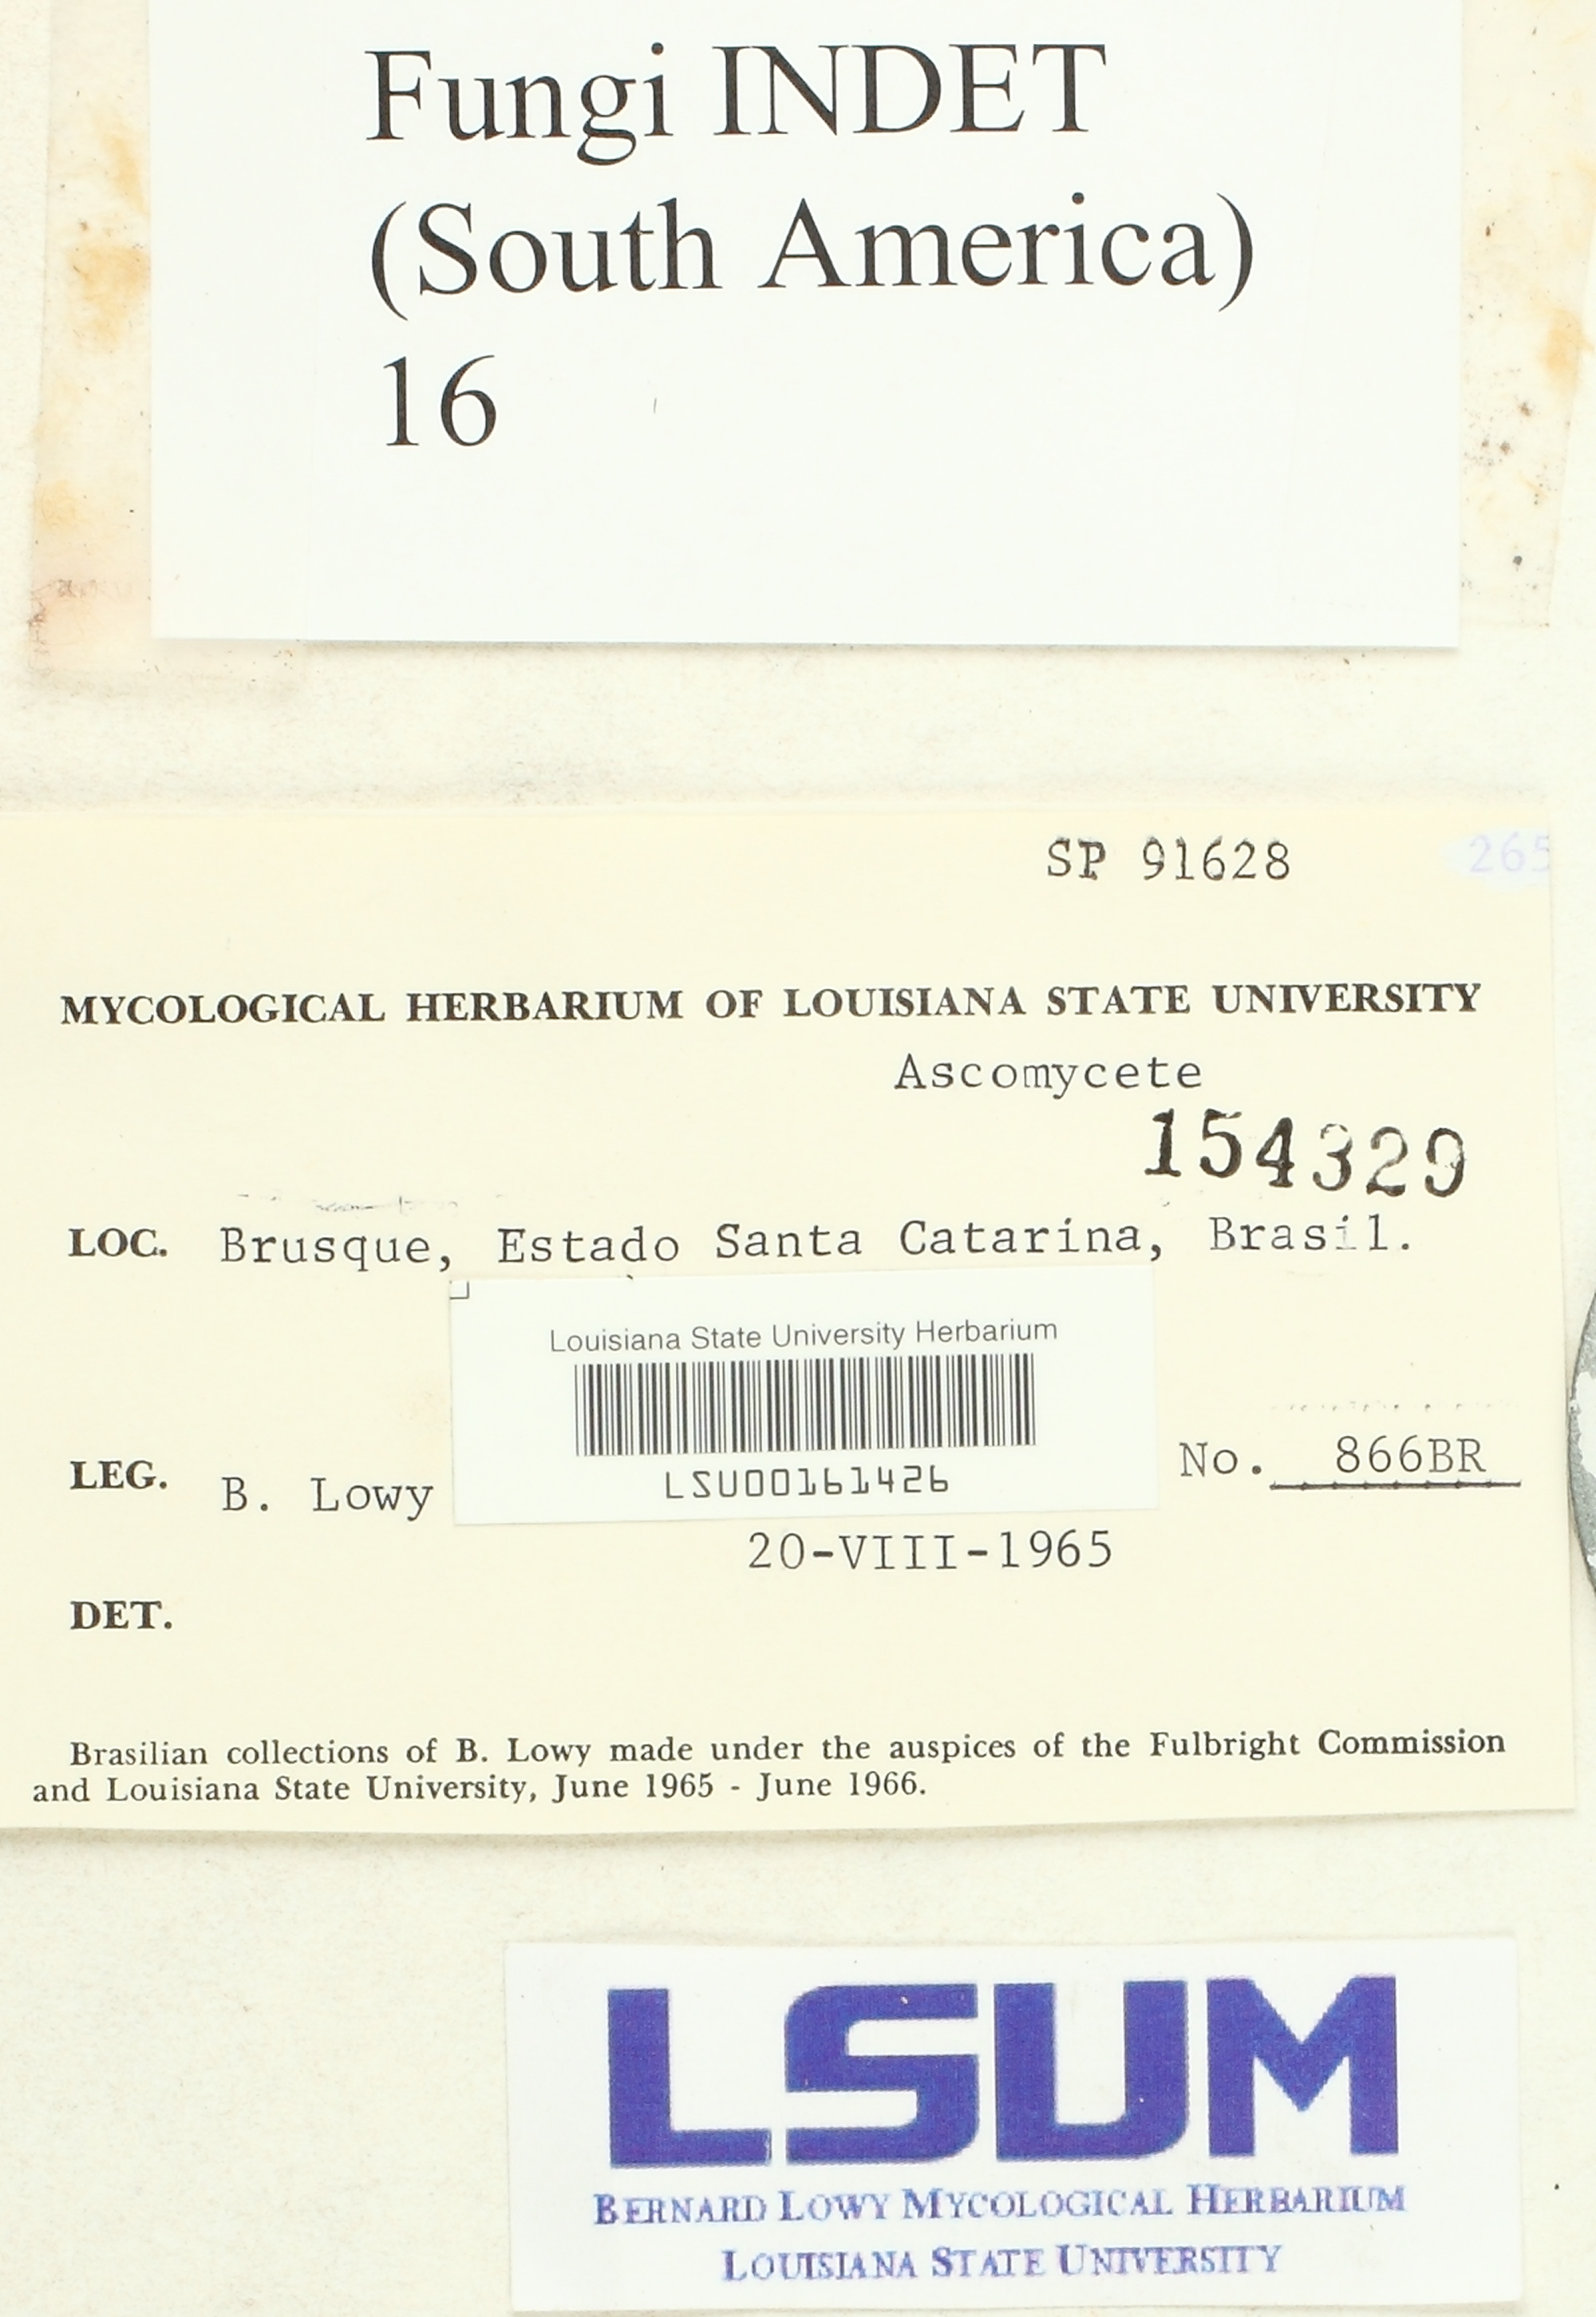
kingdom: Fungi
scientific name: Fungi
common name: Fungi
